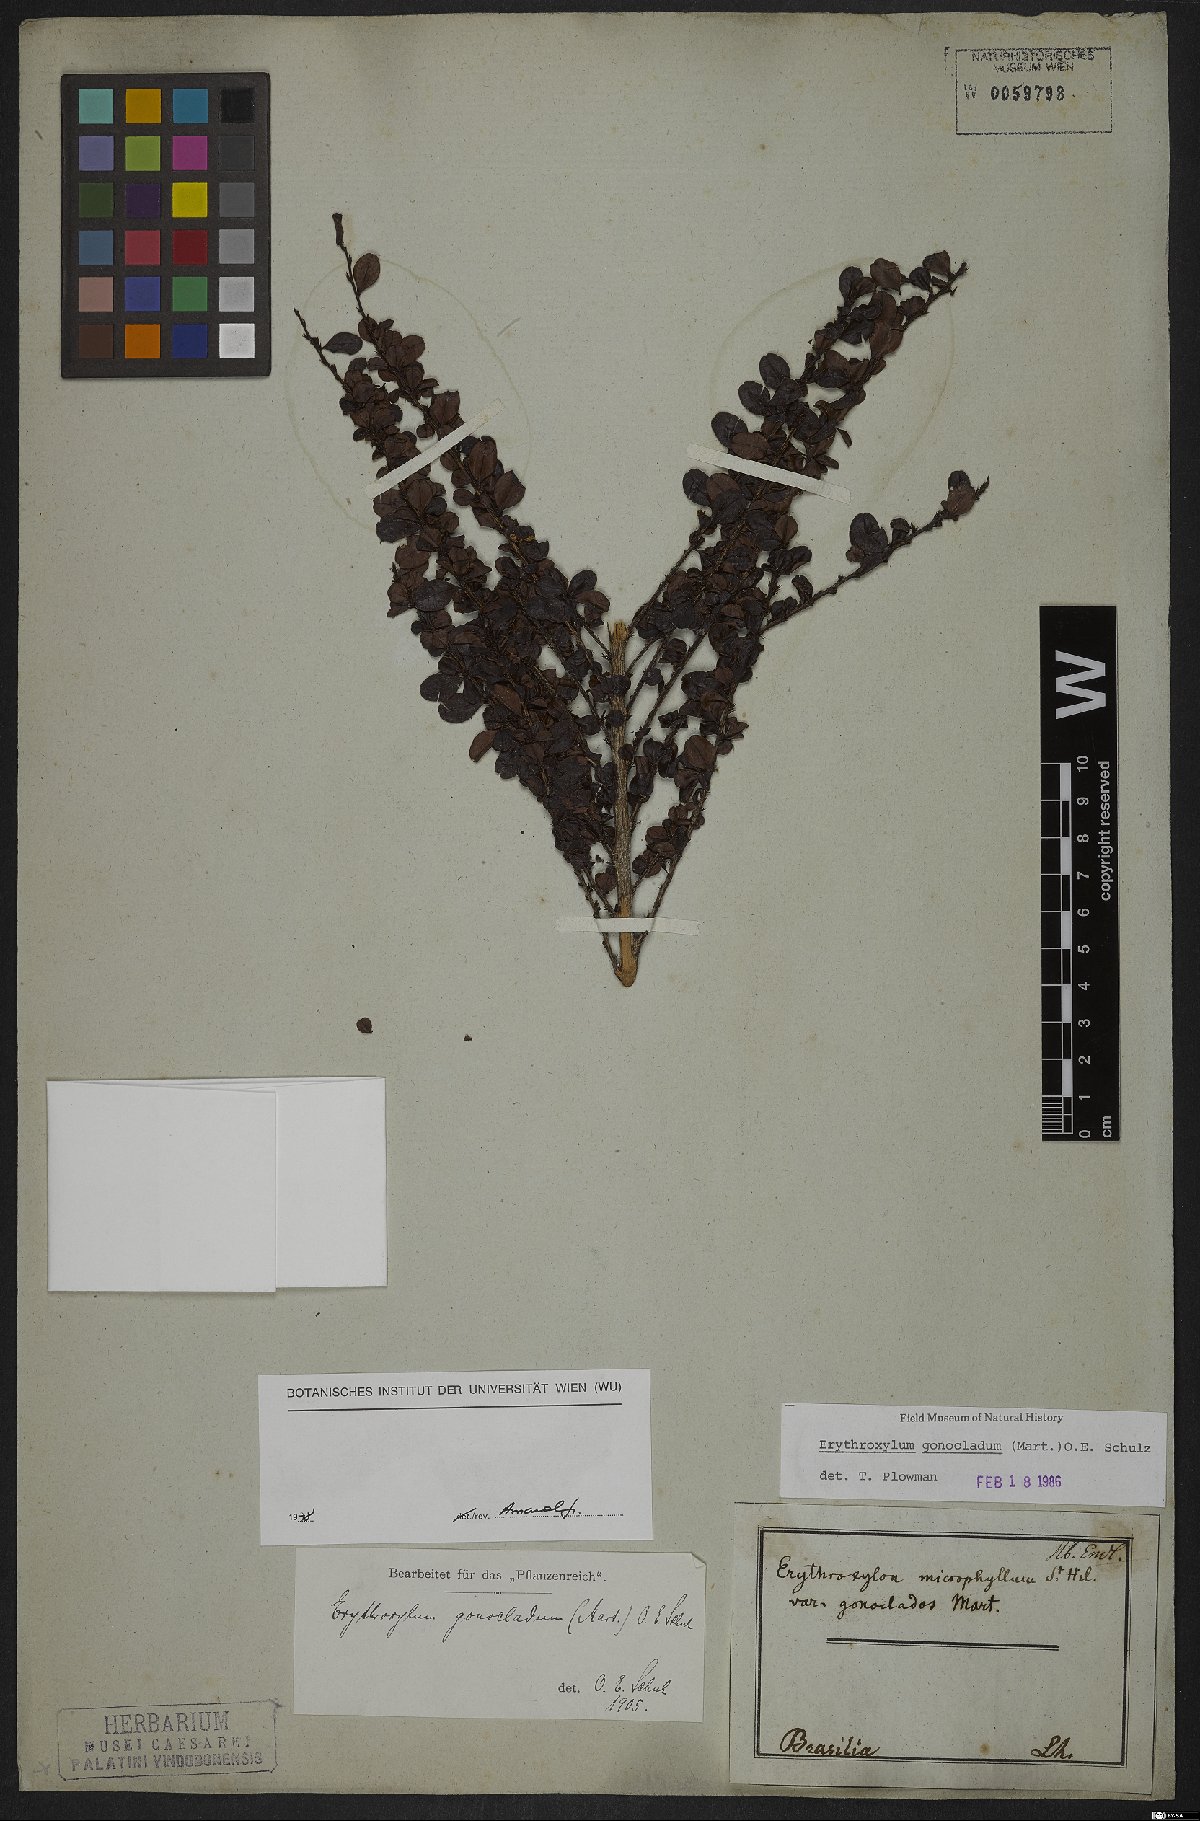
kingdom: Plantae
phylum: Tracheophyta
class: Magnoliopsida
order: Sapindales
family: Sapindaceae
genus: Talisia
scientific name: Talisia cerasina
